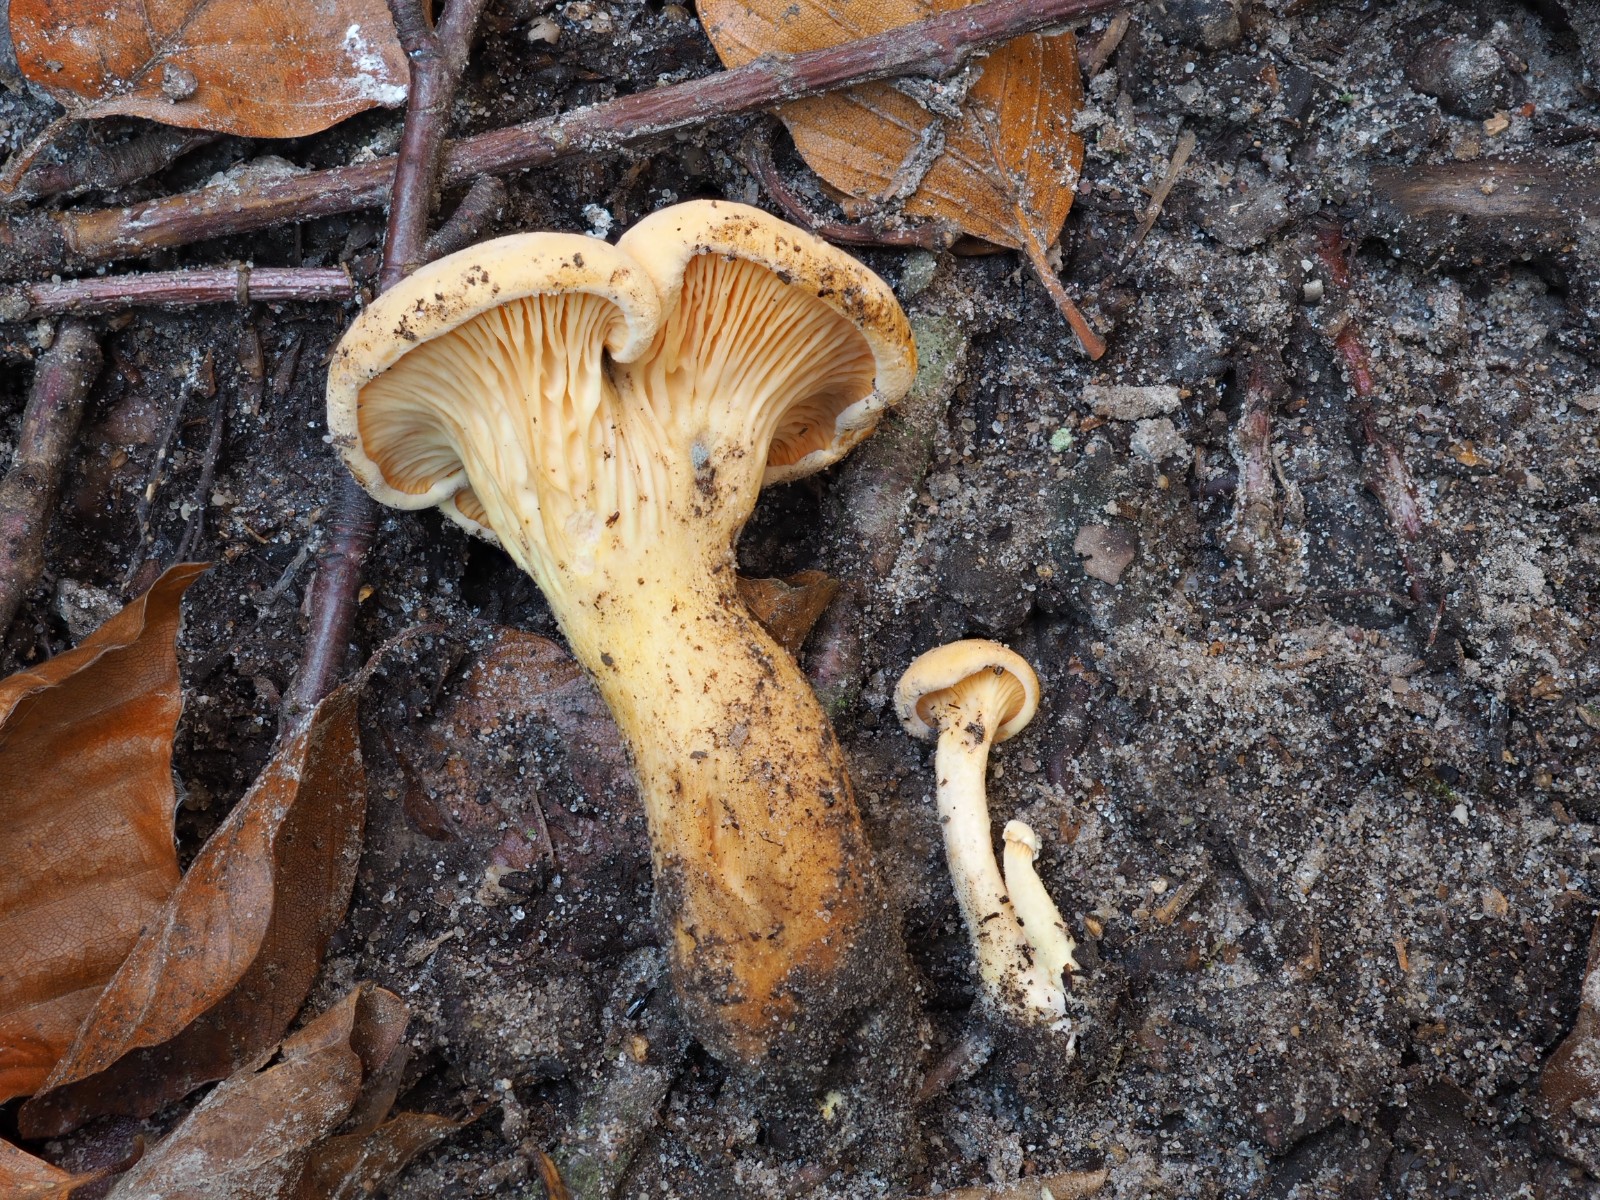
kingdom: Fungi
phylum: Basidiomycota
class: Agaricomycetes
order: Boletales
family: Hygrophoropsidaceae
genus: Hygrophoropsis
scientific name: Hygrophoropsis
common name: orangekantarel
